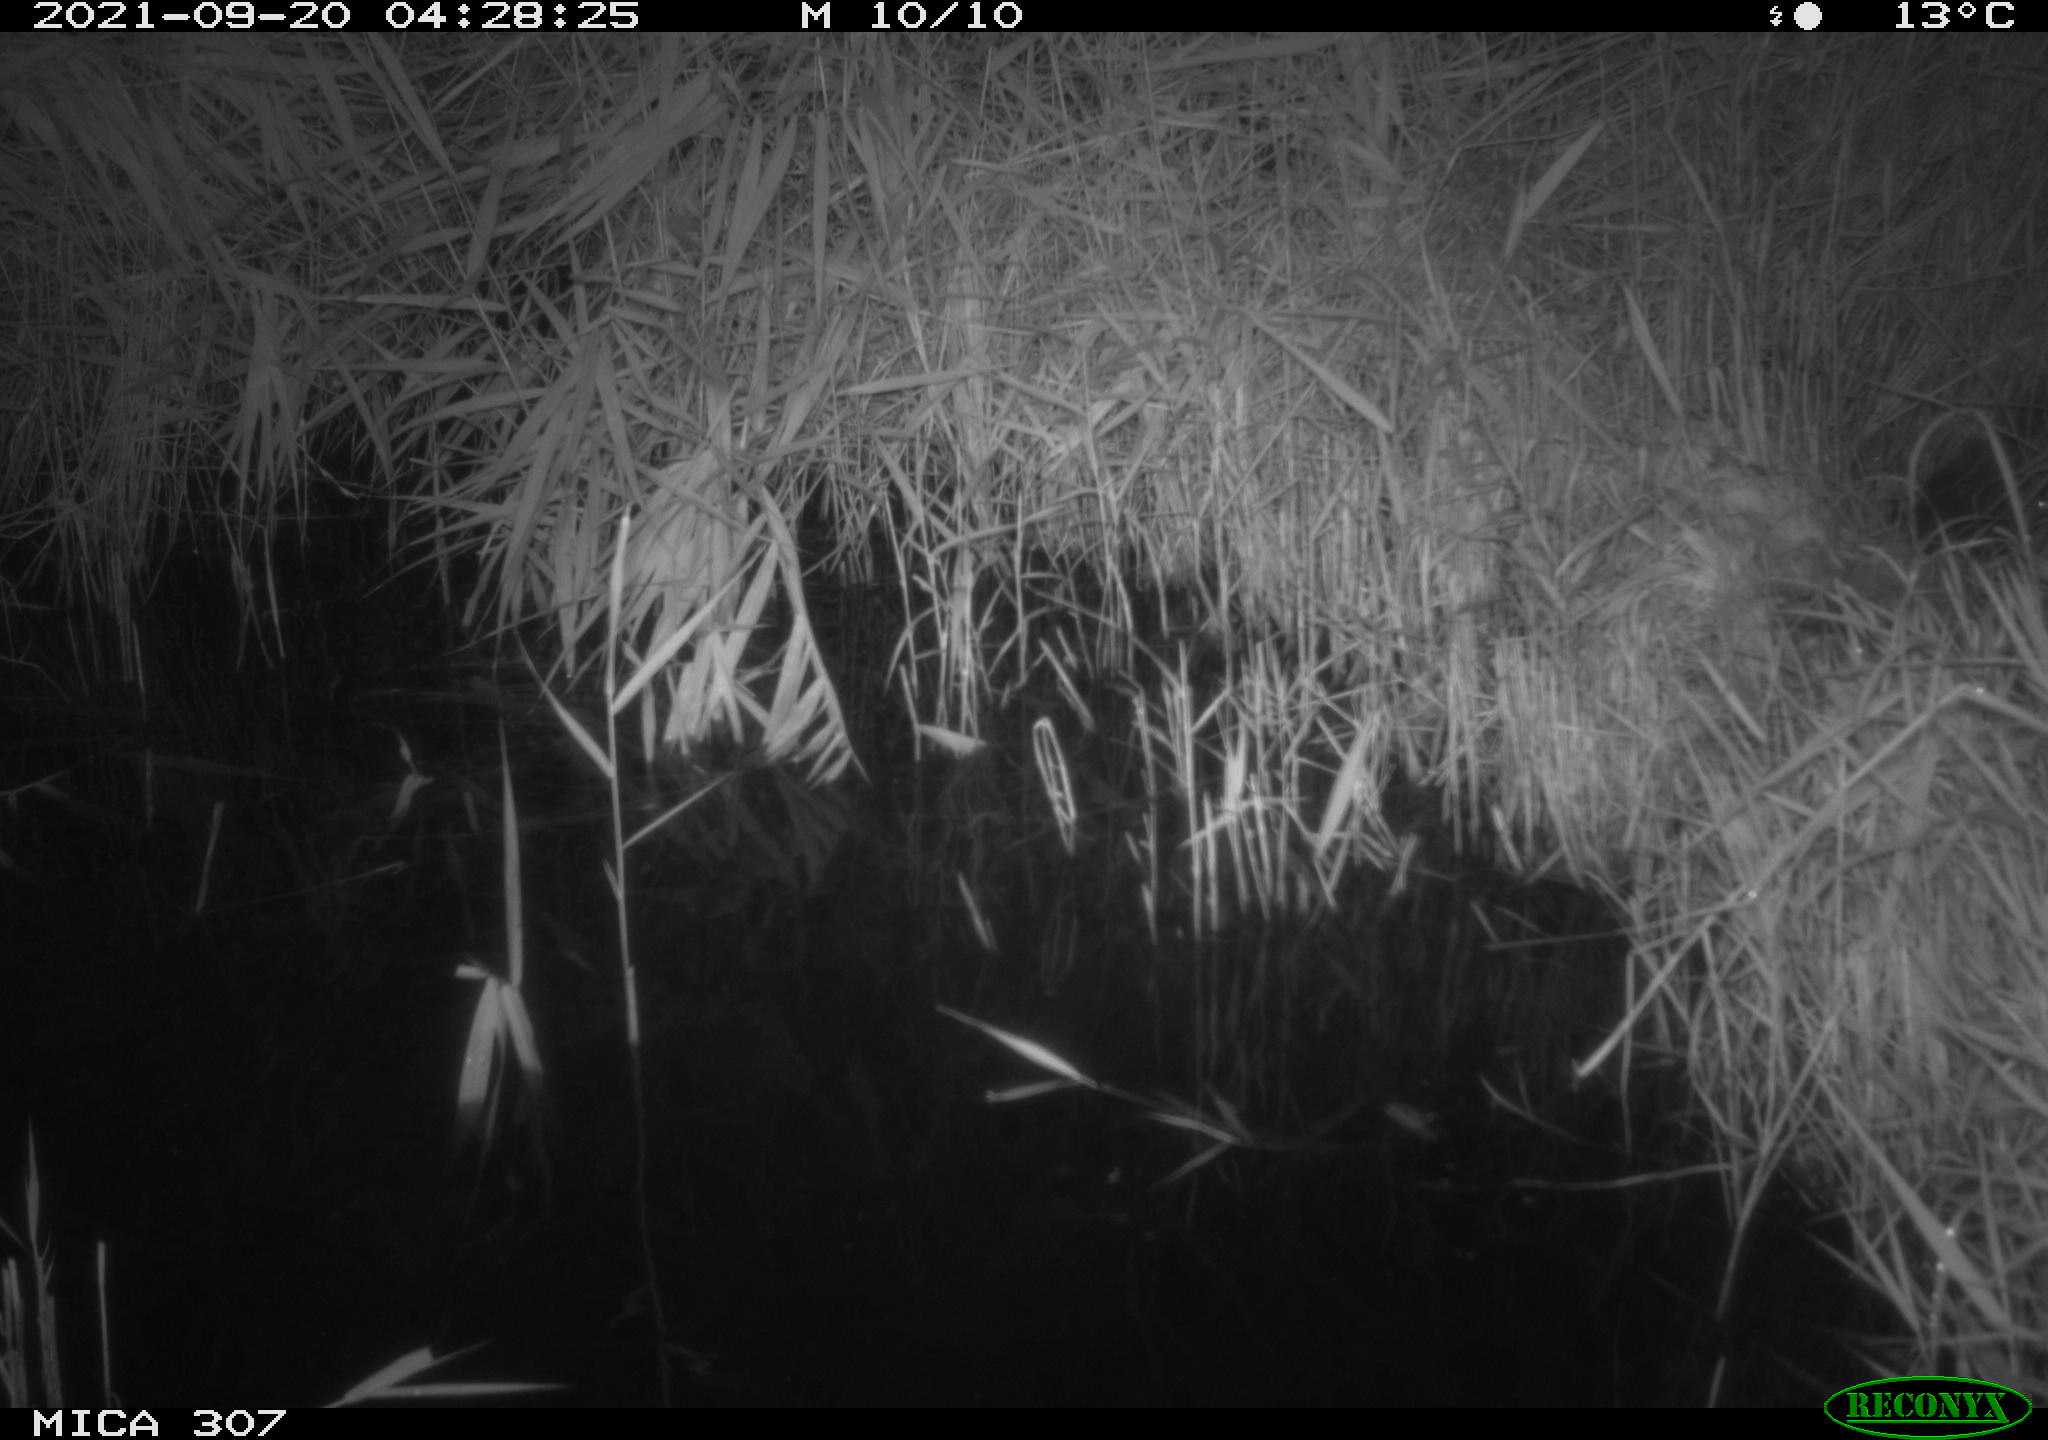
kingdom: Animalia
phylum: Chordata
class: Mammalia
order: Rodentia
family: Muridae
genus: Rattus
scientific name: Rattus norvegicus
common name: Brown rat
